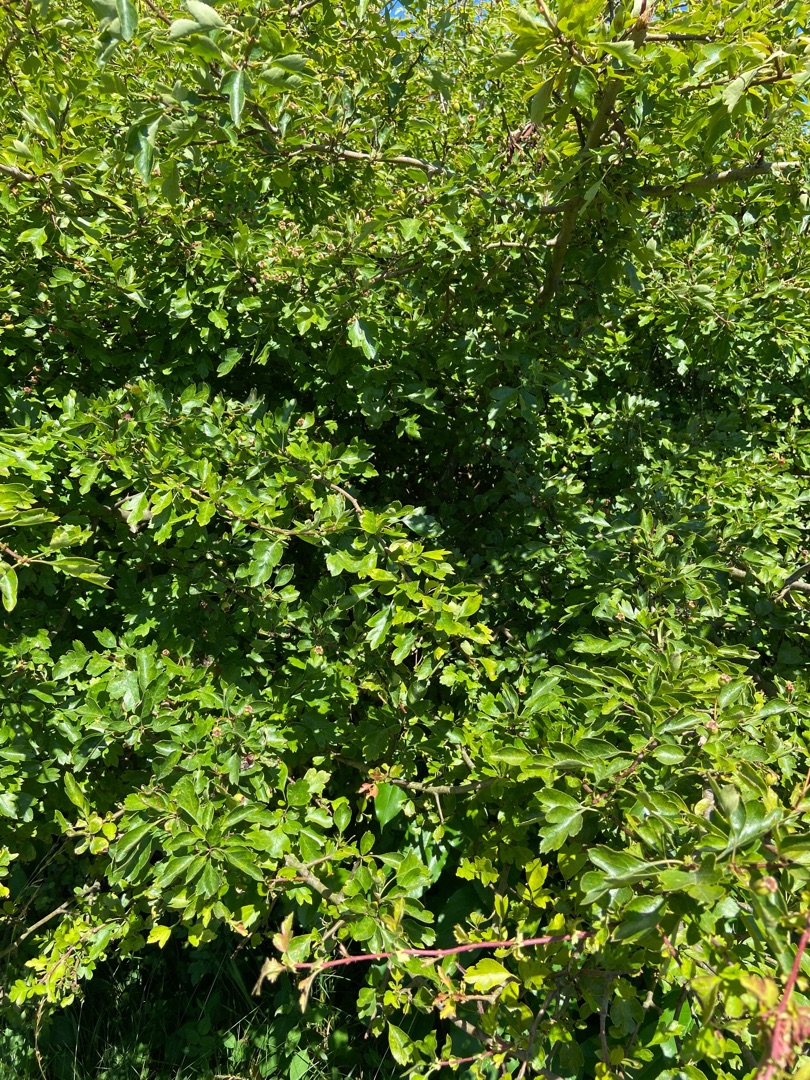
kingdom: Plantae
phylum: Tracheophyta
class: Magnoliopsida
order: Rosales
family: Rosaceae
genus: Crataegus
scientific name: Crataegus
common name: Hvidtjørnslægten
